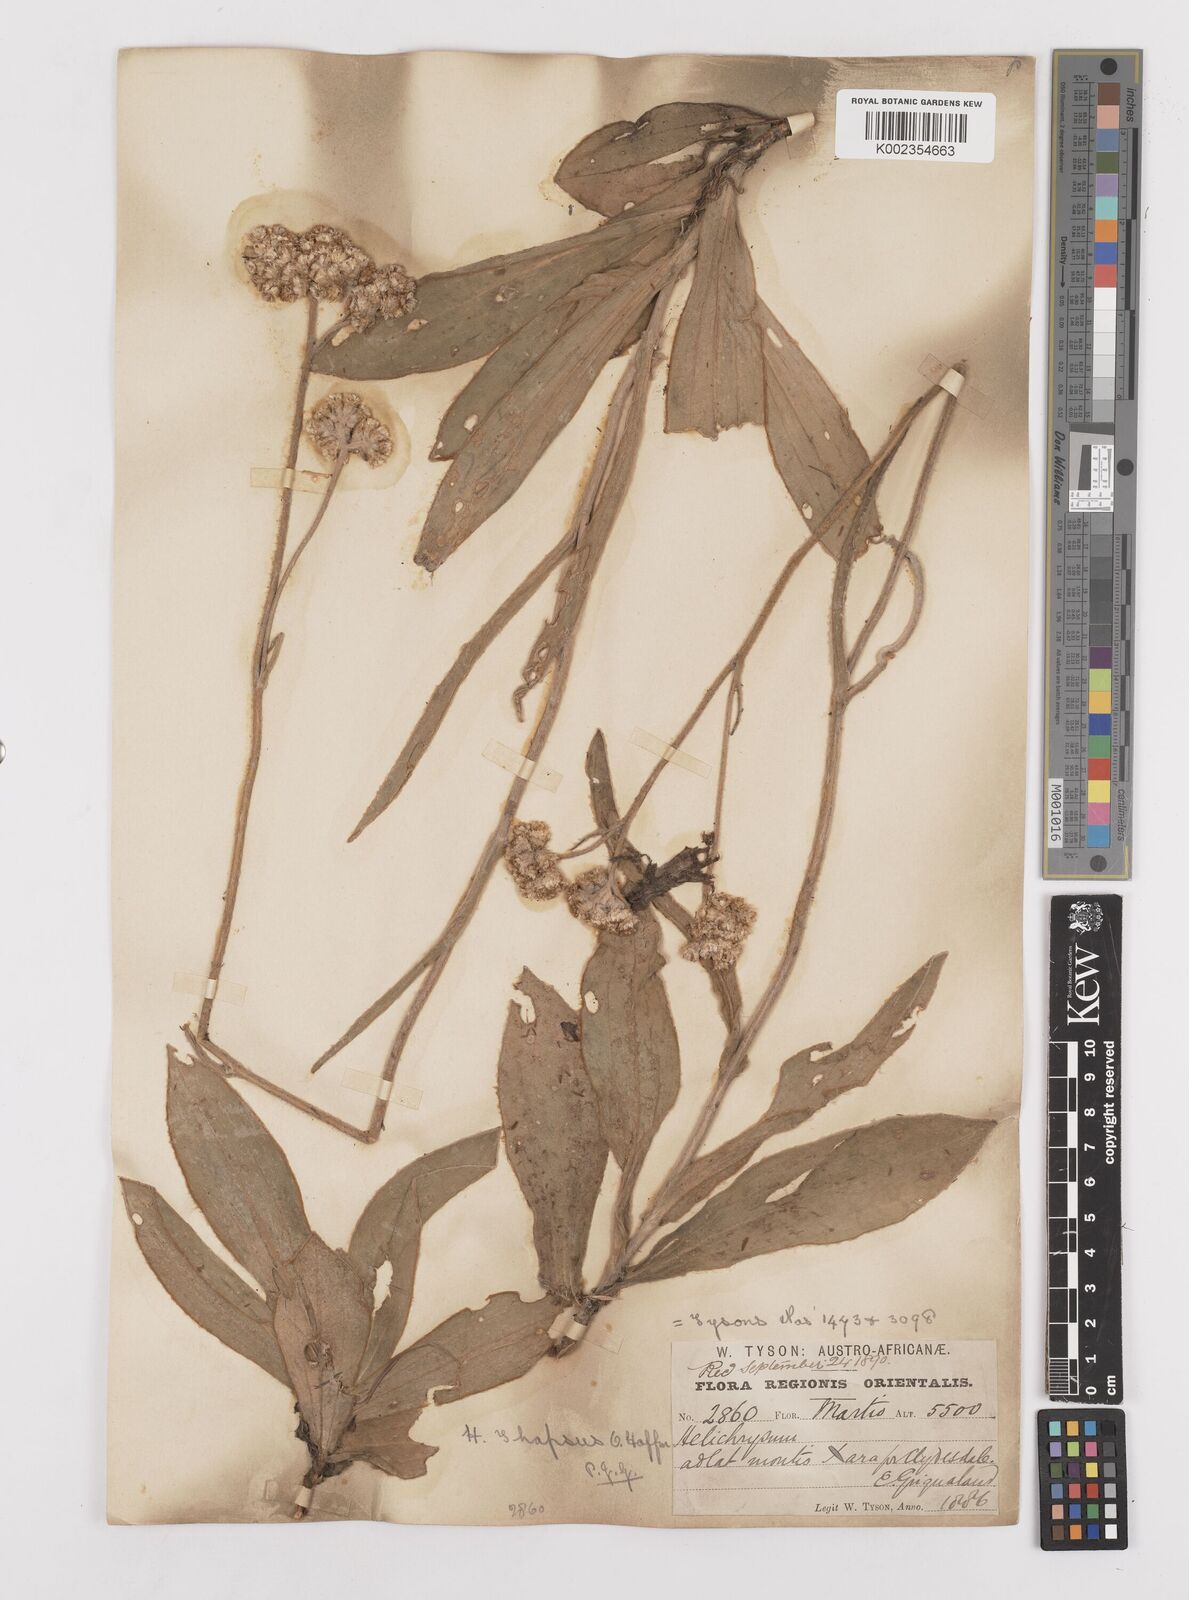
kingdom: Plantae
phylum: Tracheophyta
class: Magnoliopsida
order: Asterales
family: Asteraceae
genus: Helichrysum
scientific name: Helichrysum thapsus
